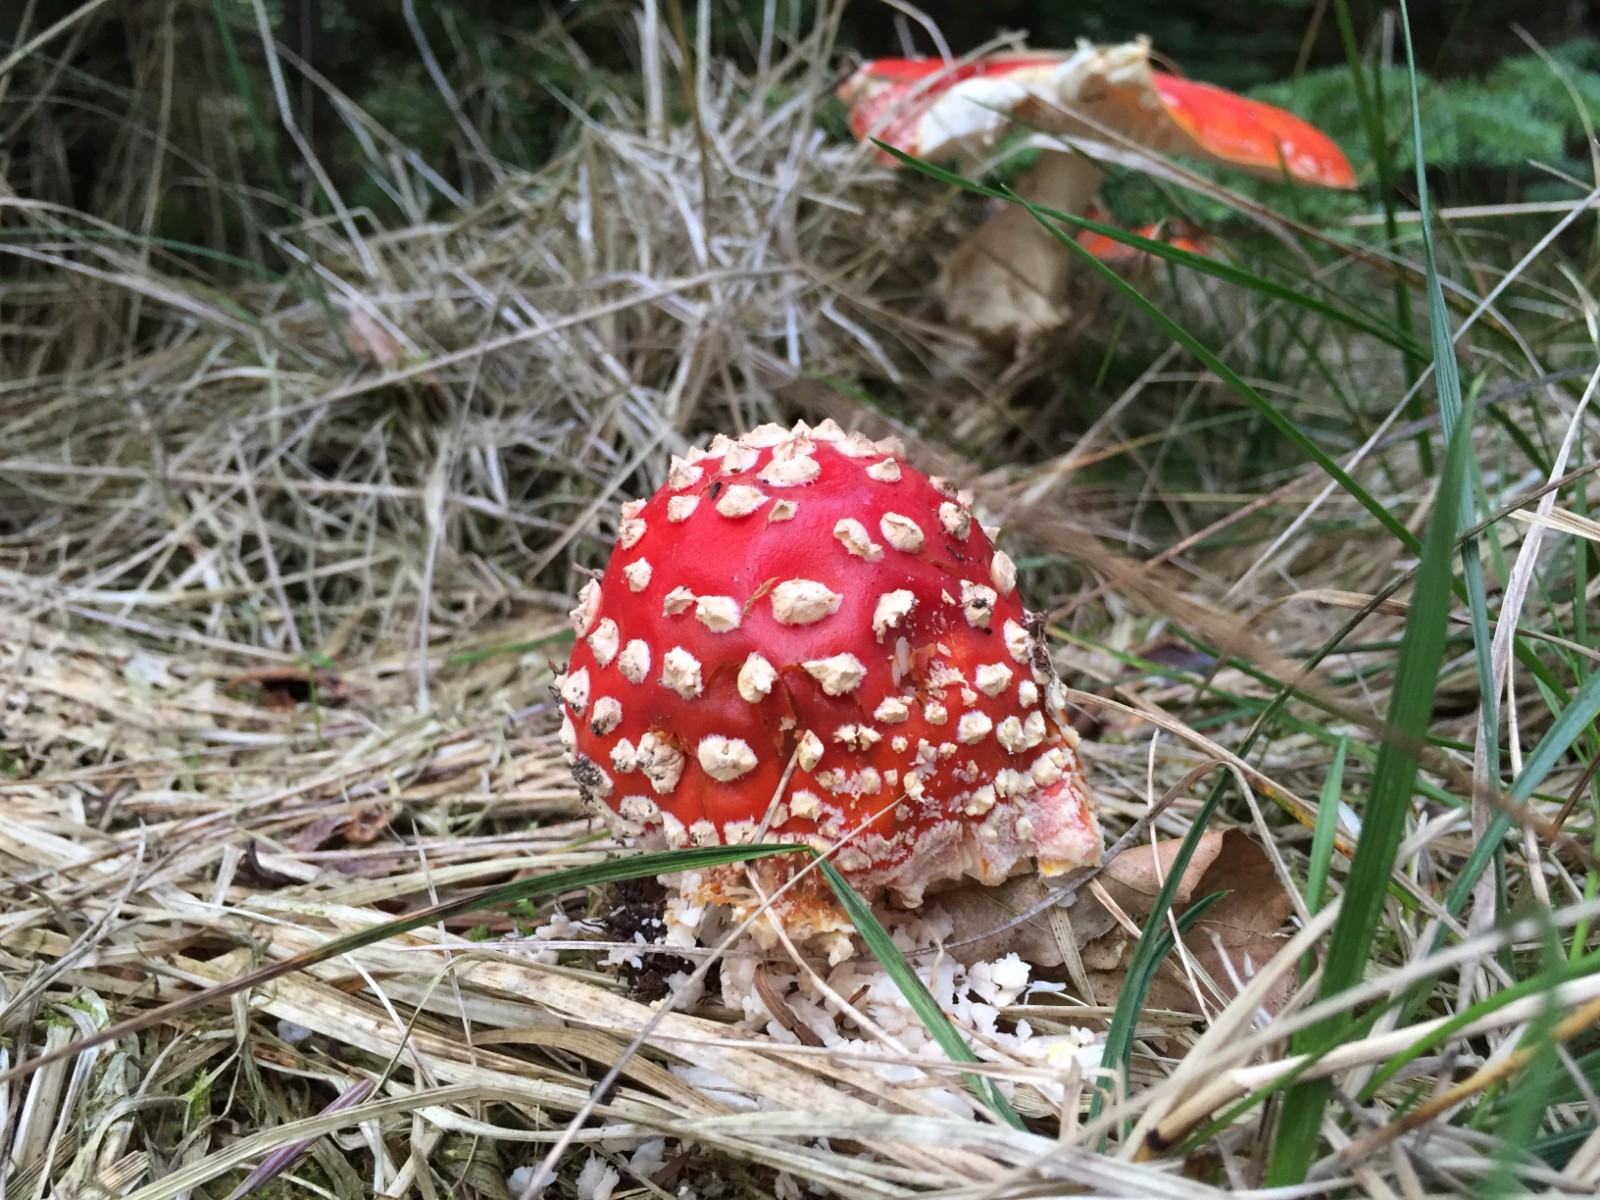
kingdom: Fungi
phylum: Basidiomycota
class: Agaricomycetes
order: Agaricales
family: Amanitaceae
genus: Amanita
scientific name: Amanita muscaria
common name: rød fluesvamp
